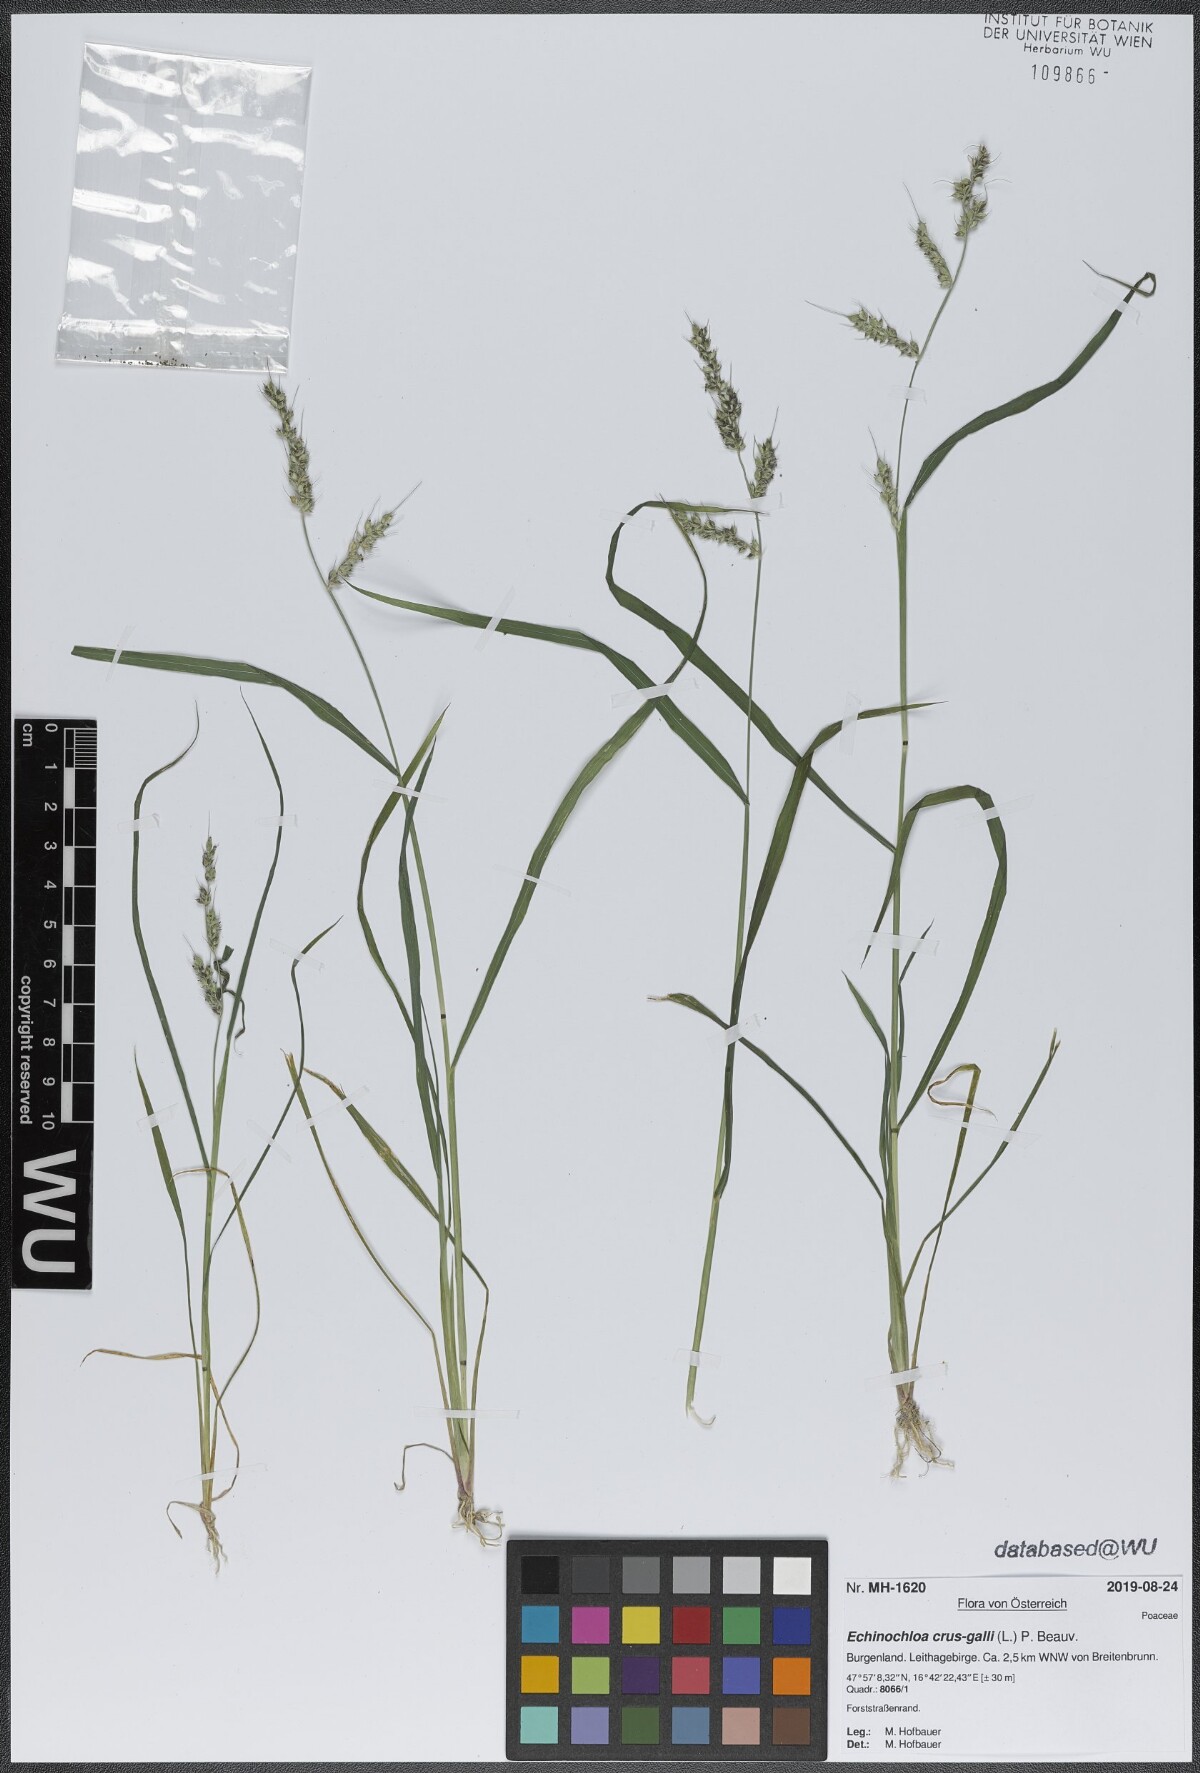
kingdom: Plantae
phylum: Tracheophyta
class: Liliopsida
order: Poales
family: Poaceae
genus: Echinochloa
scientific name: Echinochloa crus-galli
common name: Cockspur
